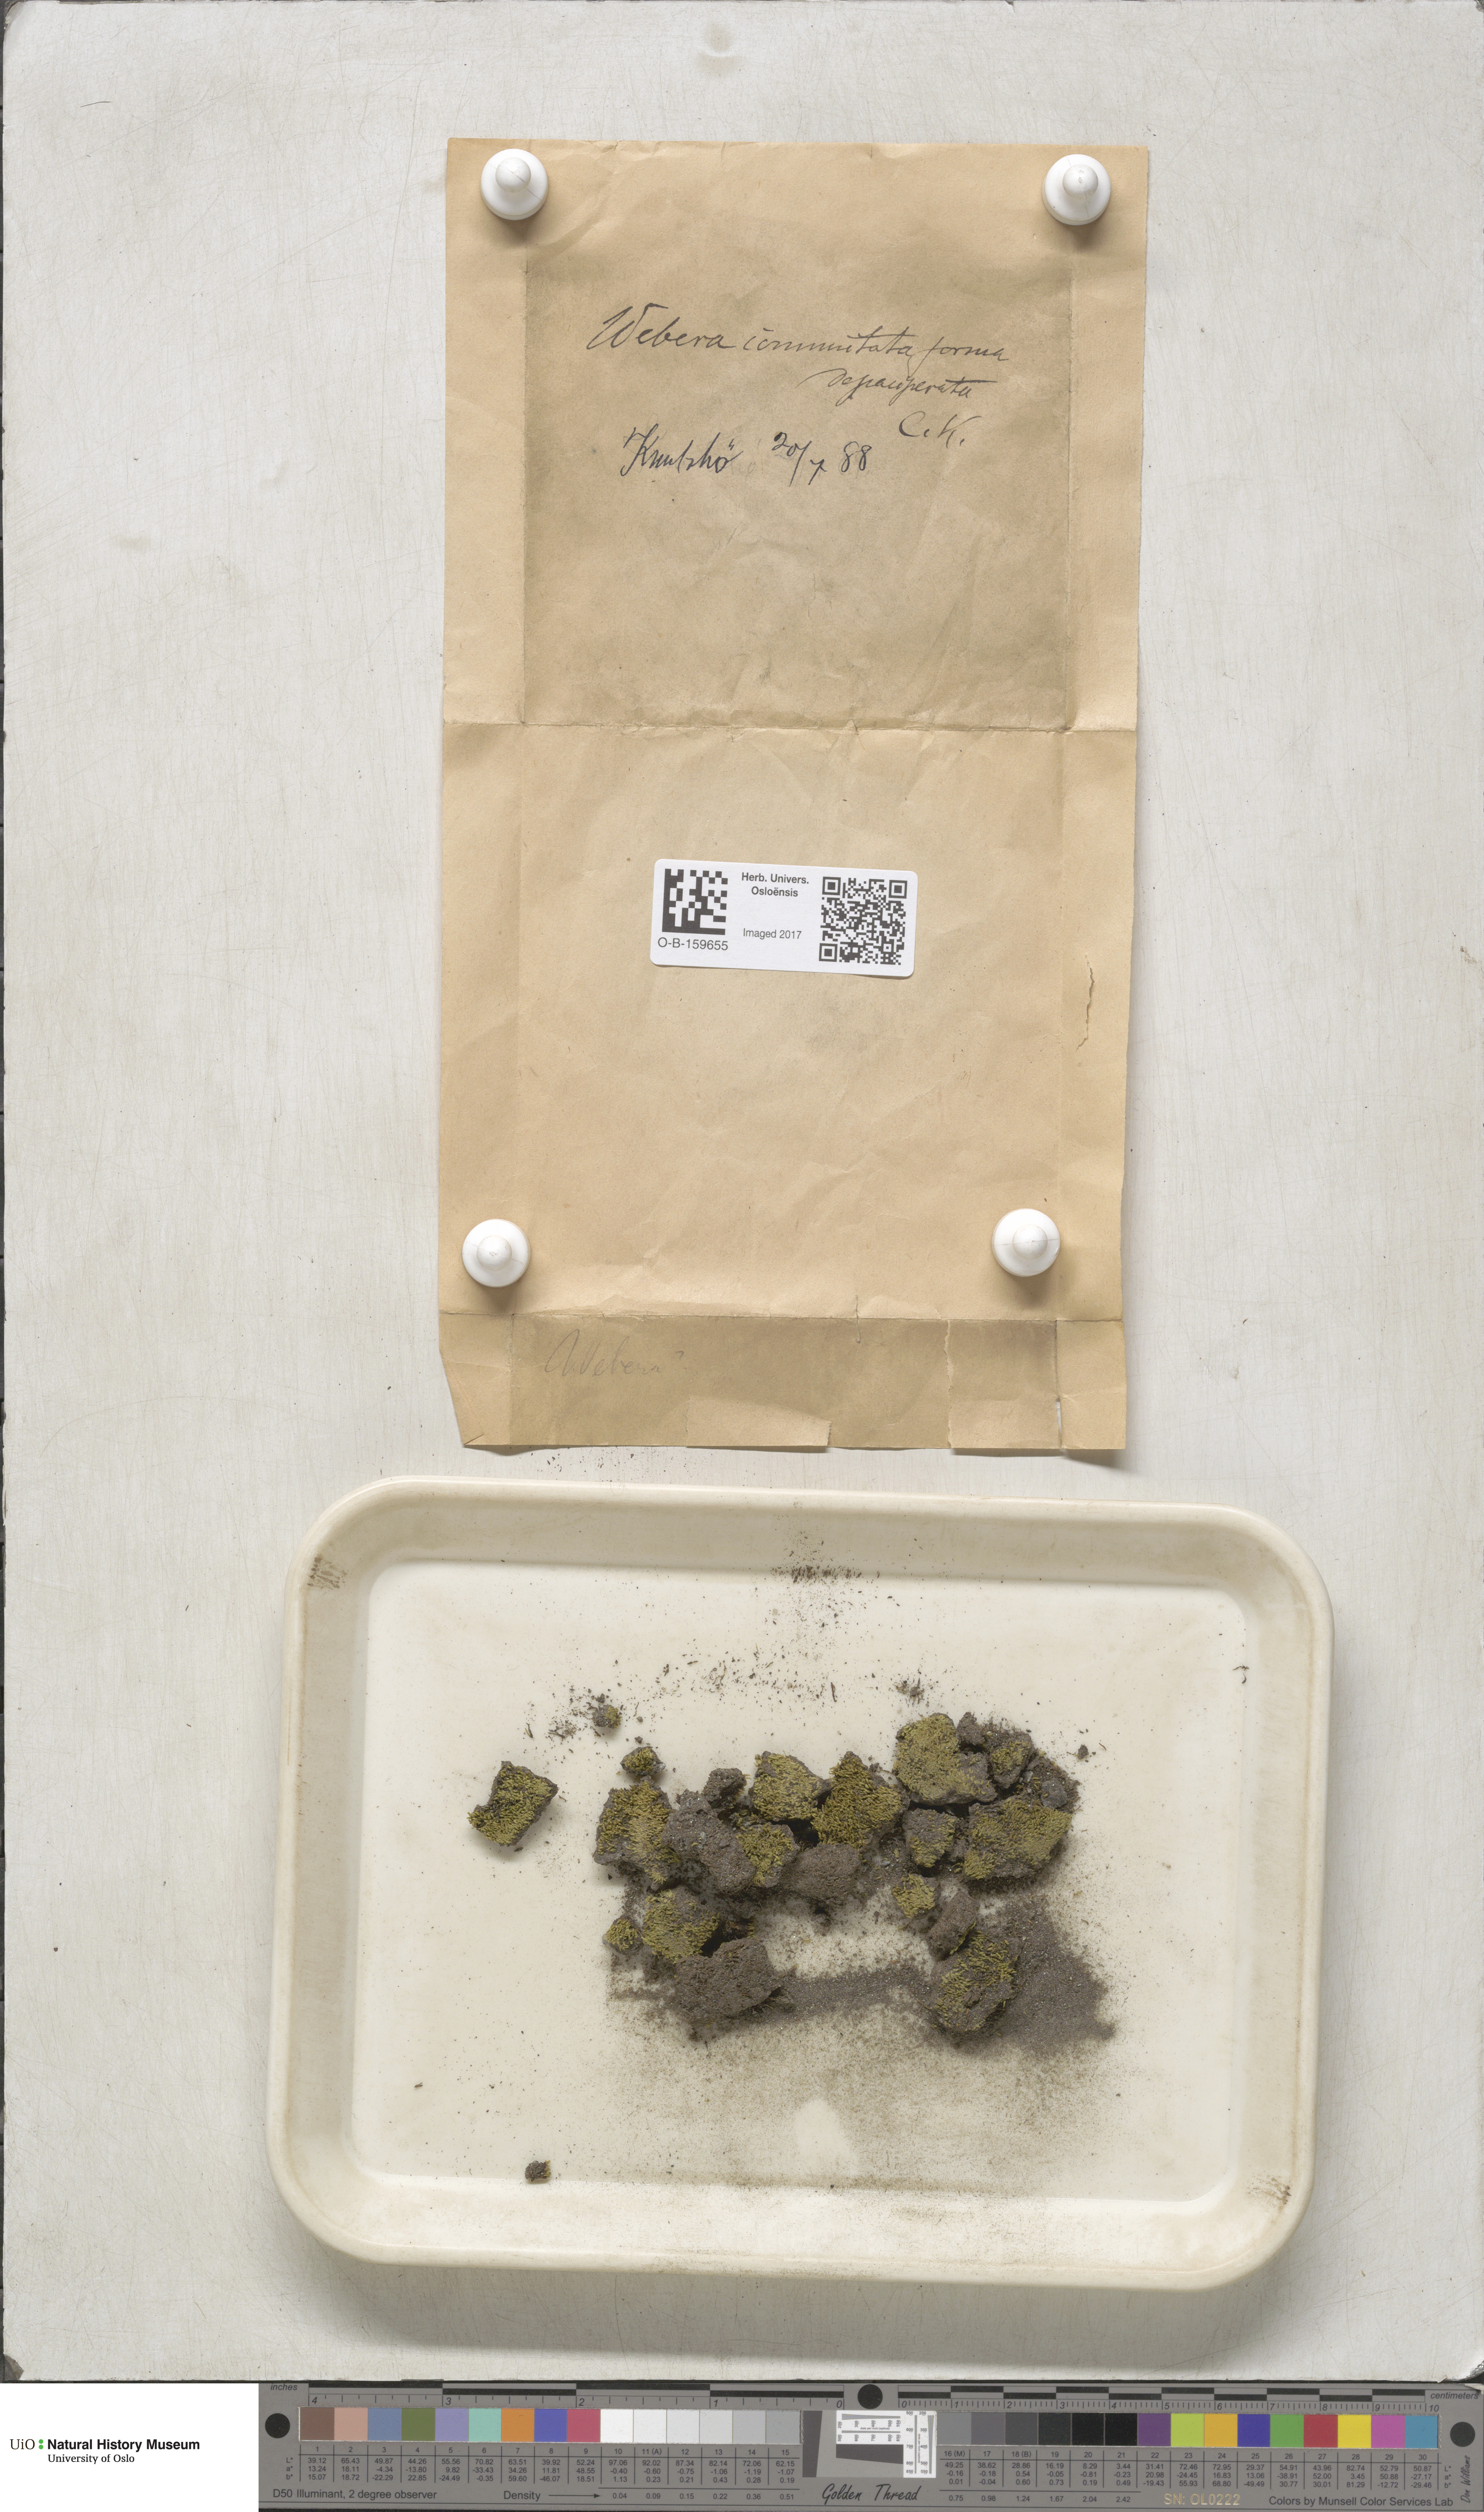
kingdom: Plantae
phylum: Bryophyta
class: Bryopsida
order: Bryales
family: Mniaceae
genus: Pohlia
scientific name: Pohlia drummondii
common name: Drummond's nodding moss
